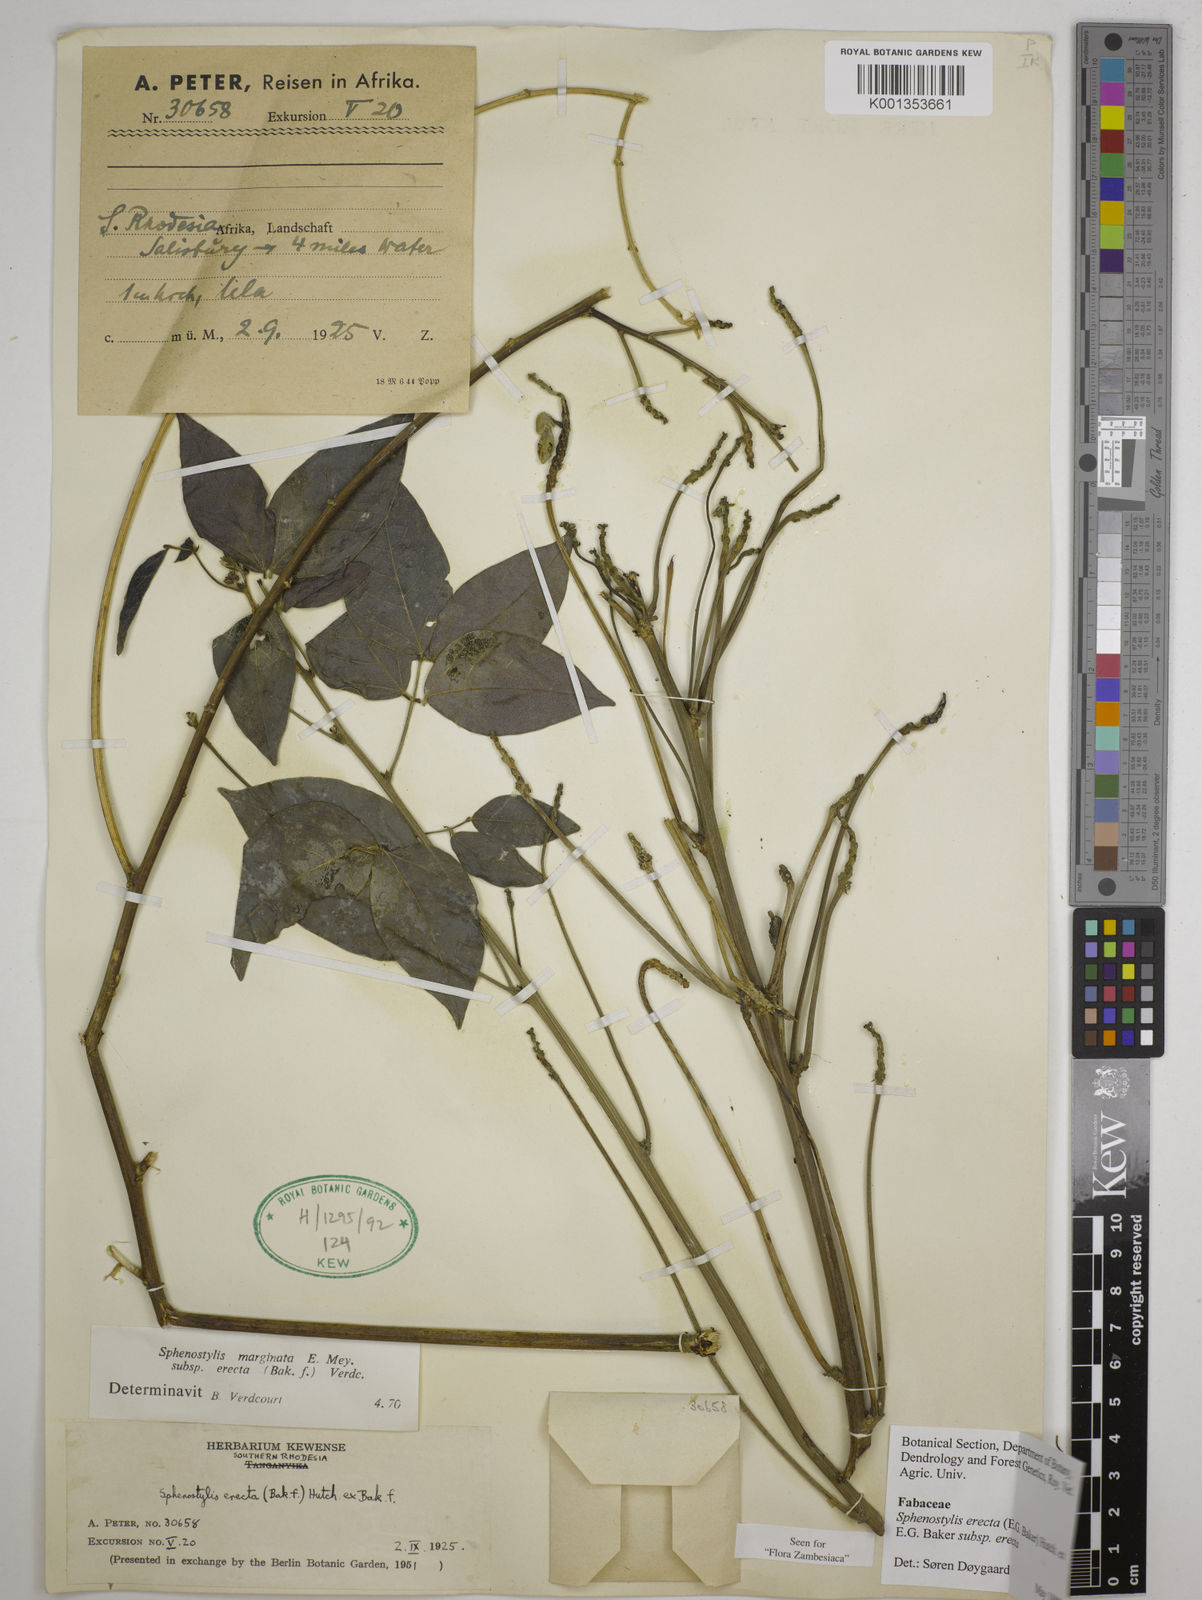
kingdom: Plantae
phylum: Tracheophyta
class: Magnoliopsida
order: Fabales
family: Fabaceae
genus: Sphenostylis
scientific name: Sphenostylis erecta
